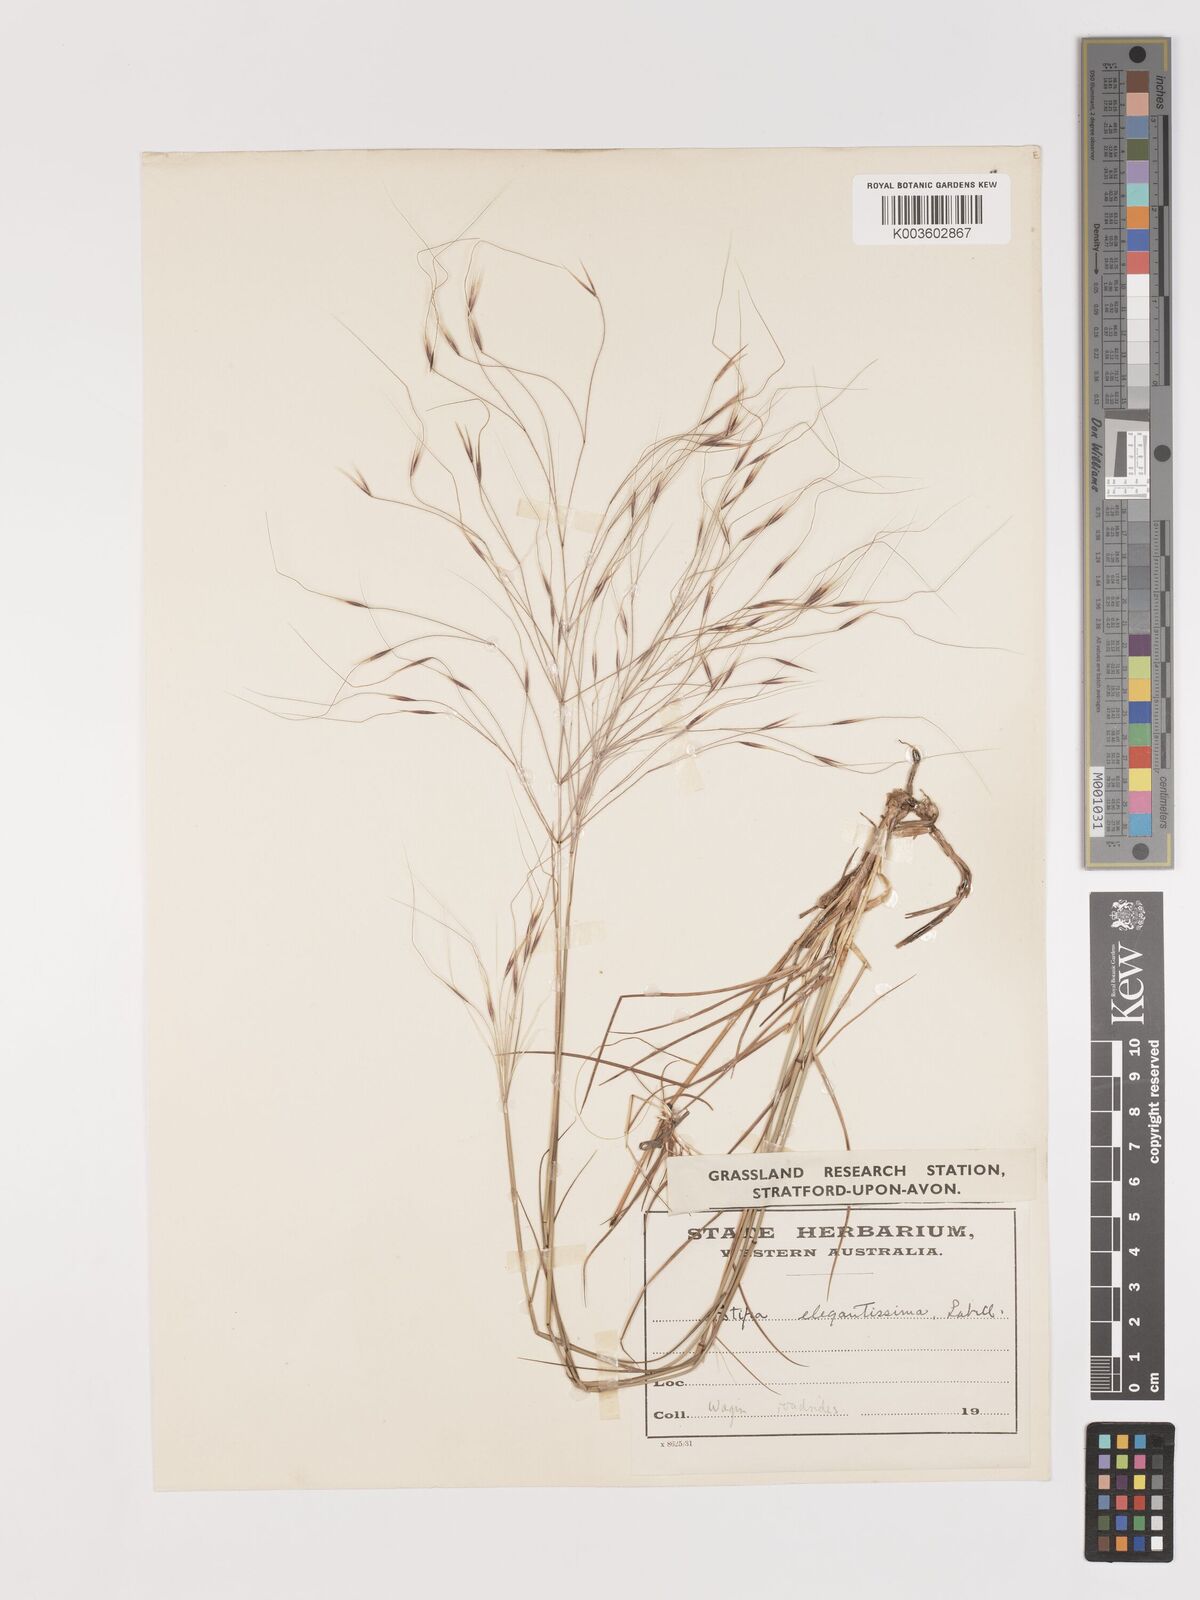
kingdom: Plantae
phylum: Tracheophyta
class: Liliopsida
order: Poales
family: Poaceae
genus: Austrostipa
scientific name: Austrostipa elegantissima
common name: Feather spear grass
